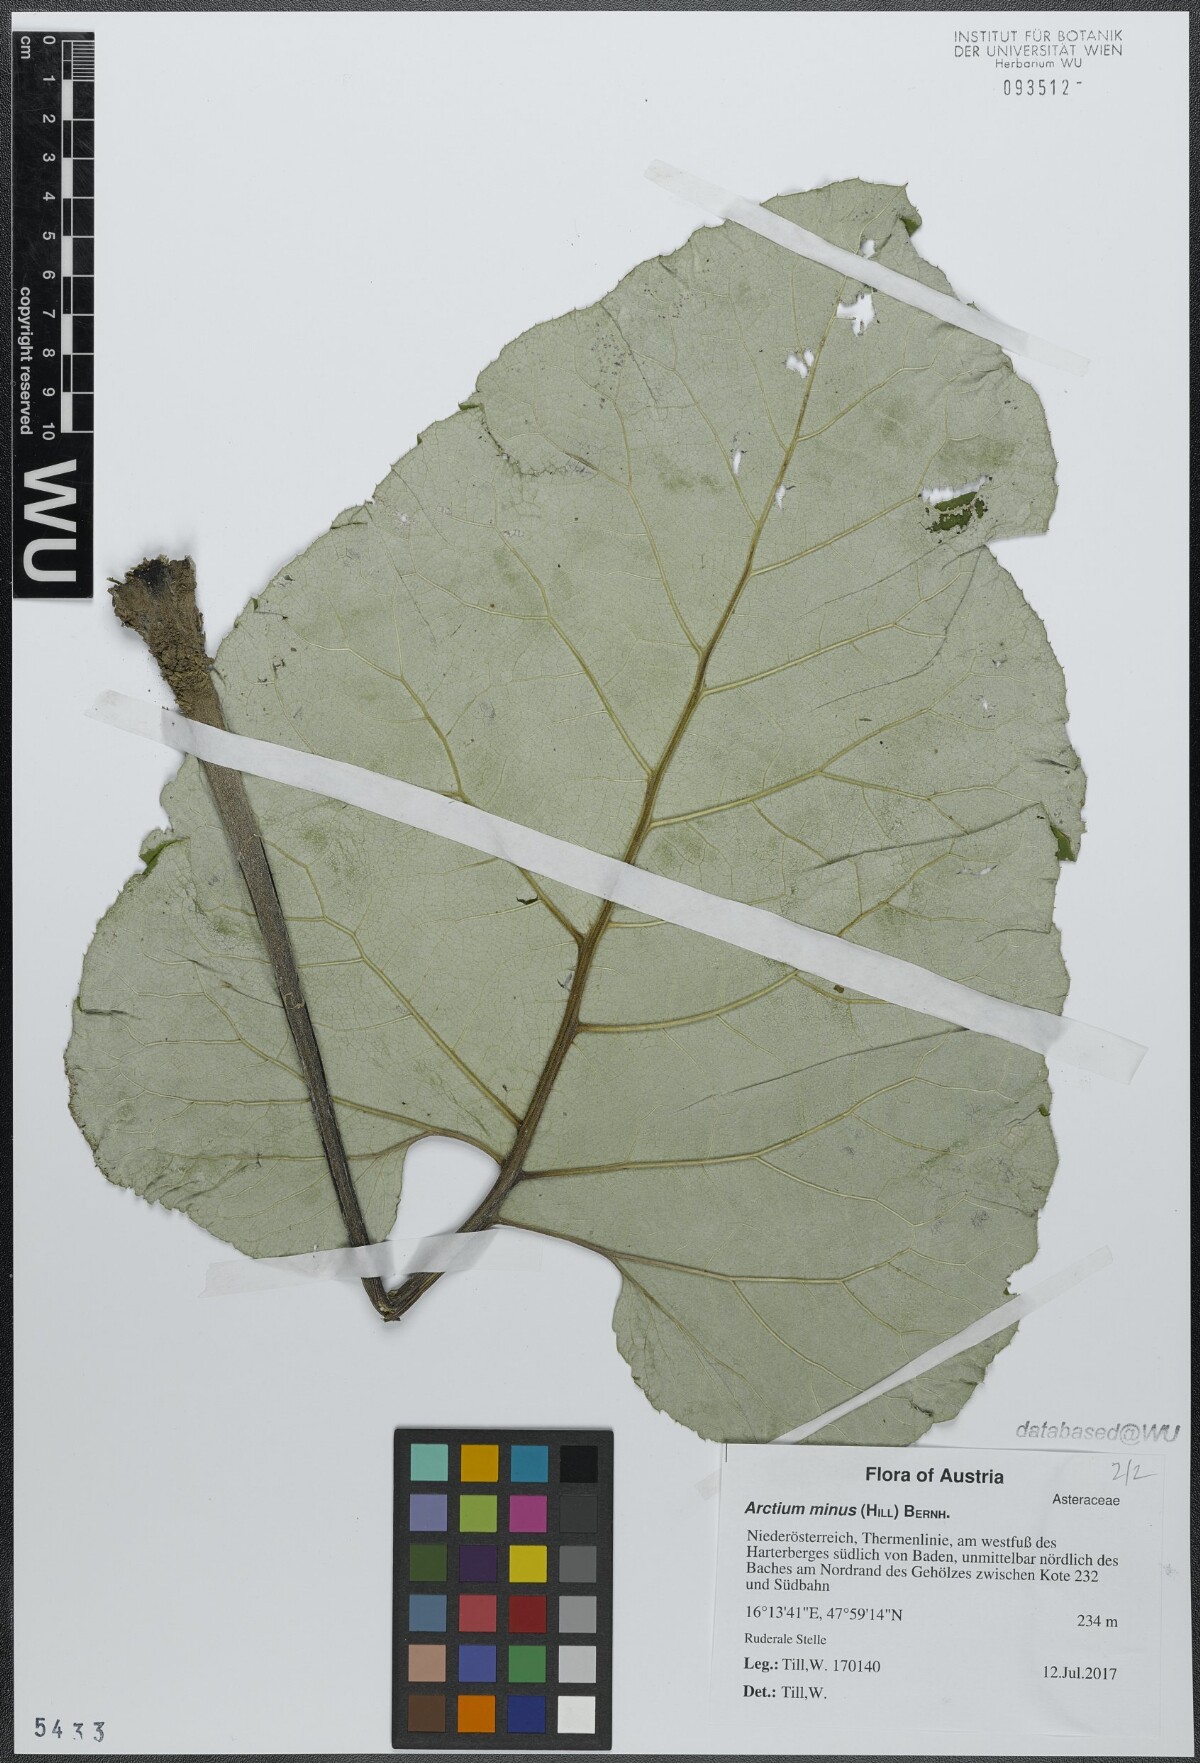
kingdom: Plantae
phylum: Tracheophyta
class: Magnoliopsida
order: Asterales
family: Asteraceae
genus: Arctium
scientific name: Arctium minus
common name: Lesser burdock
